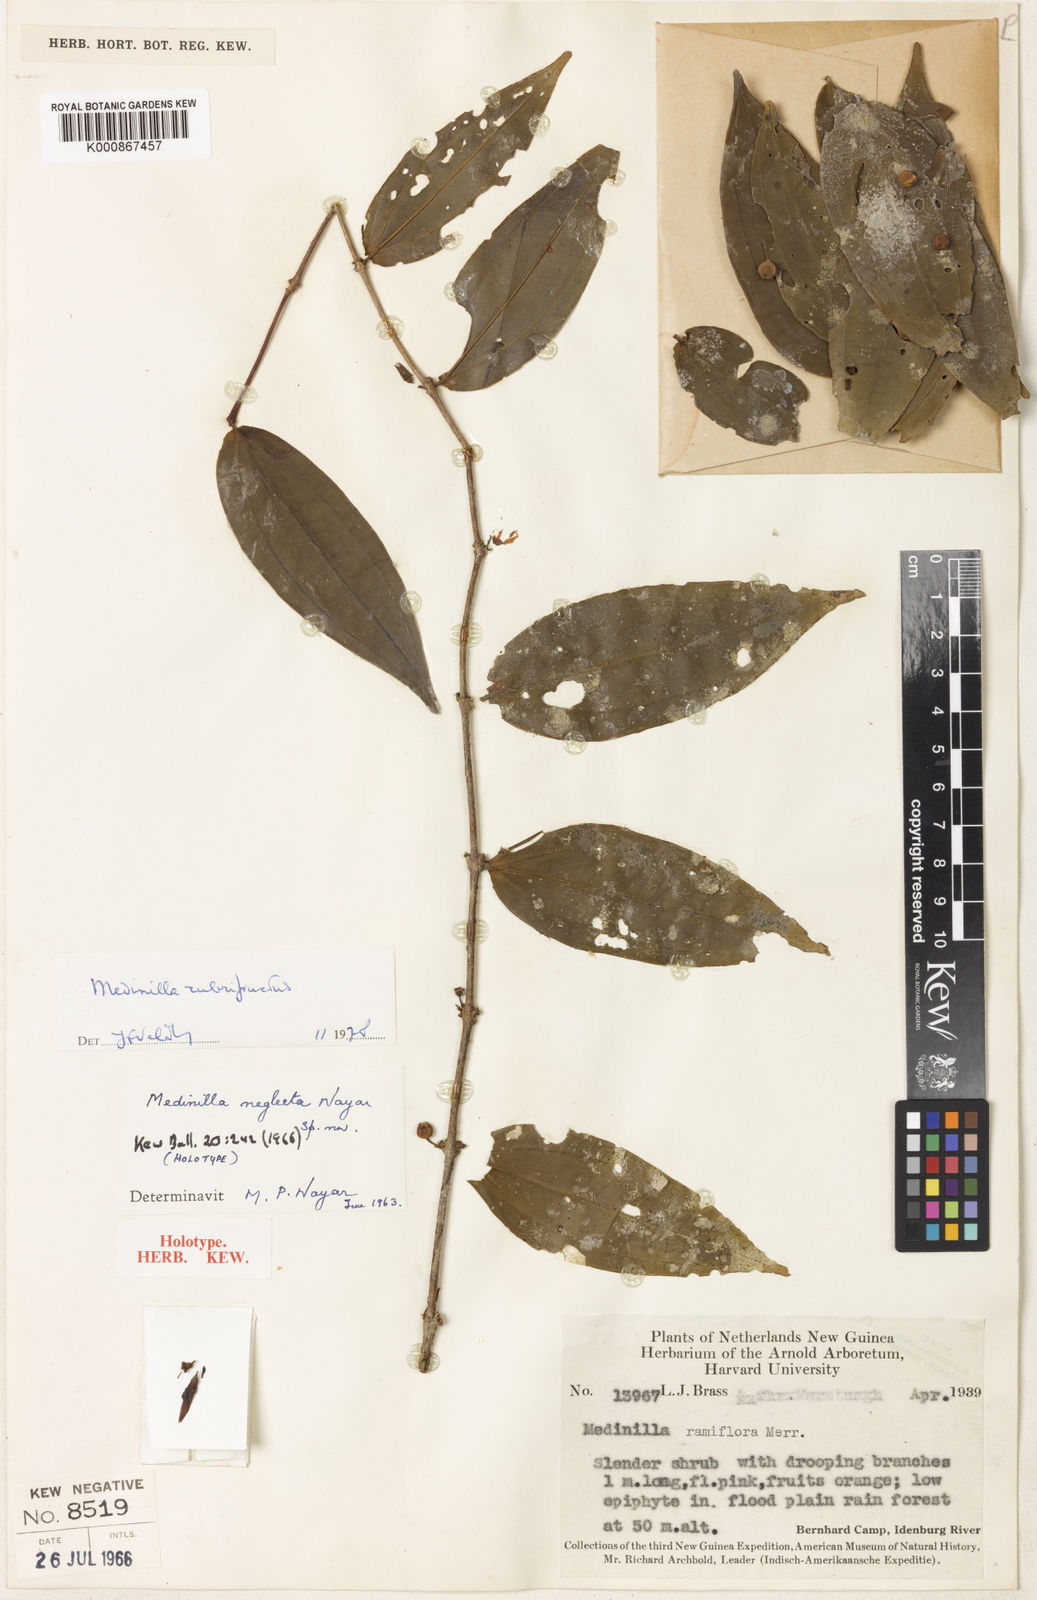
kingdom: Plantae
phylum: Tracheophyta
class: Magnoliopsida
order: Myrtales
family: Melastomataceae
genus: Medinilla
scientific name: Medinilla rubrifructus
